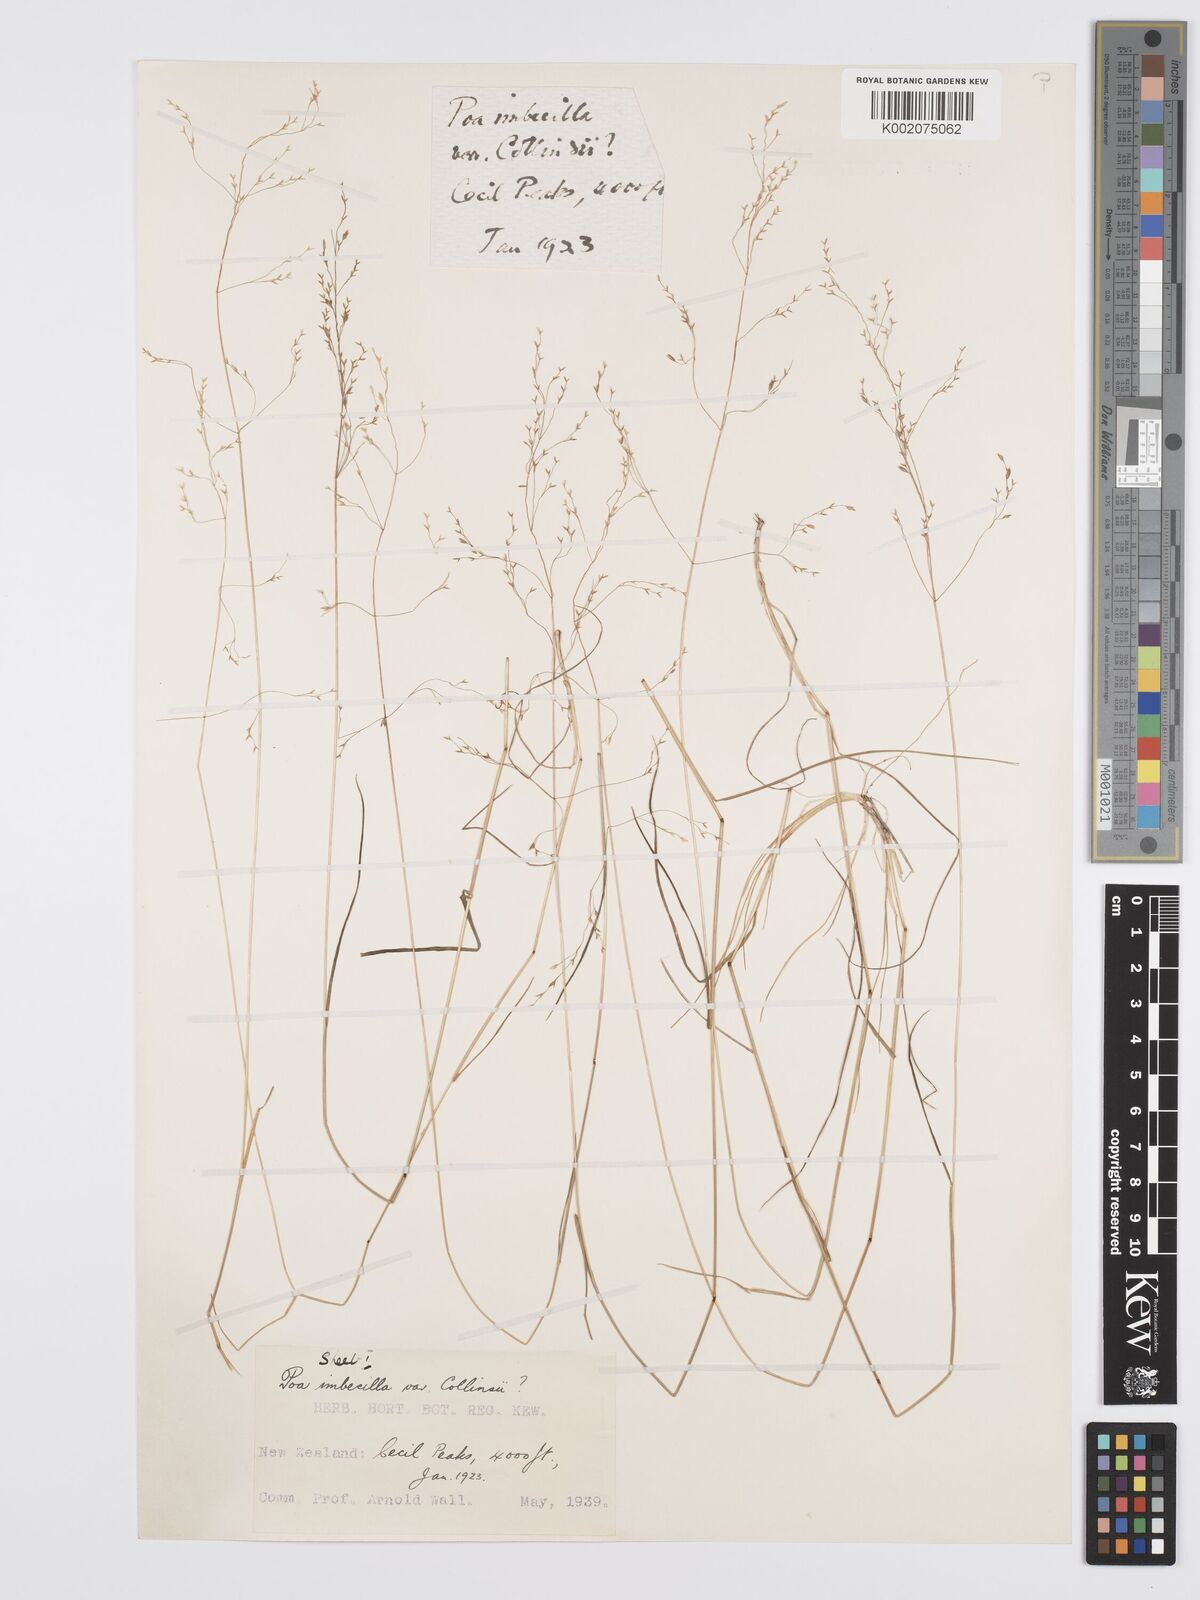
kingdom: Plantae
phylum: Tracheophyta
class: Liliopsida
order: Poales
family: Poaceae
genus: Poa
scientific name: Poa imbecilla
